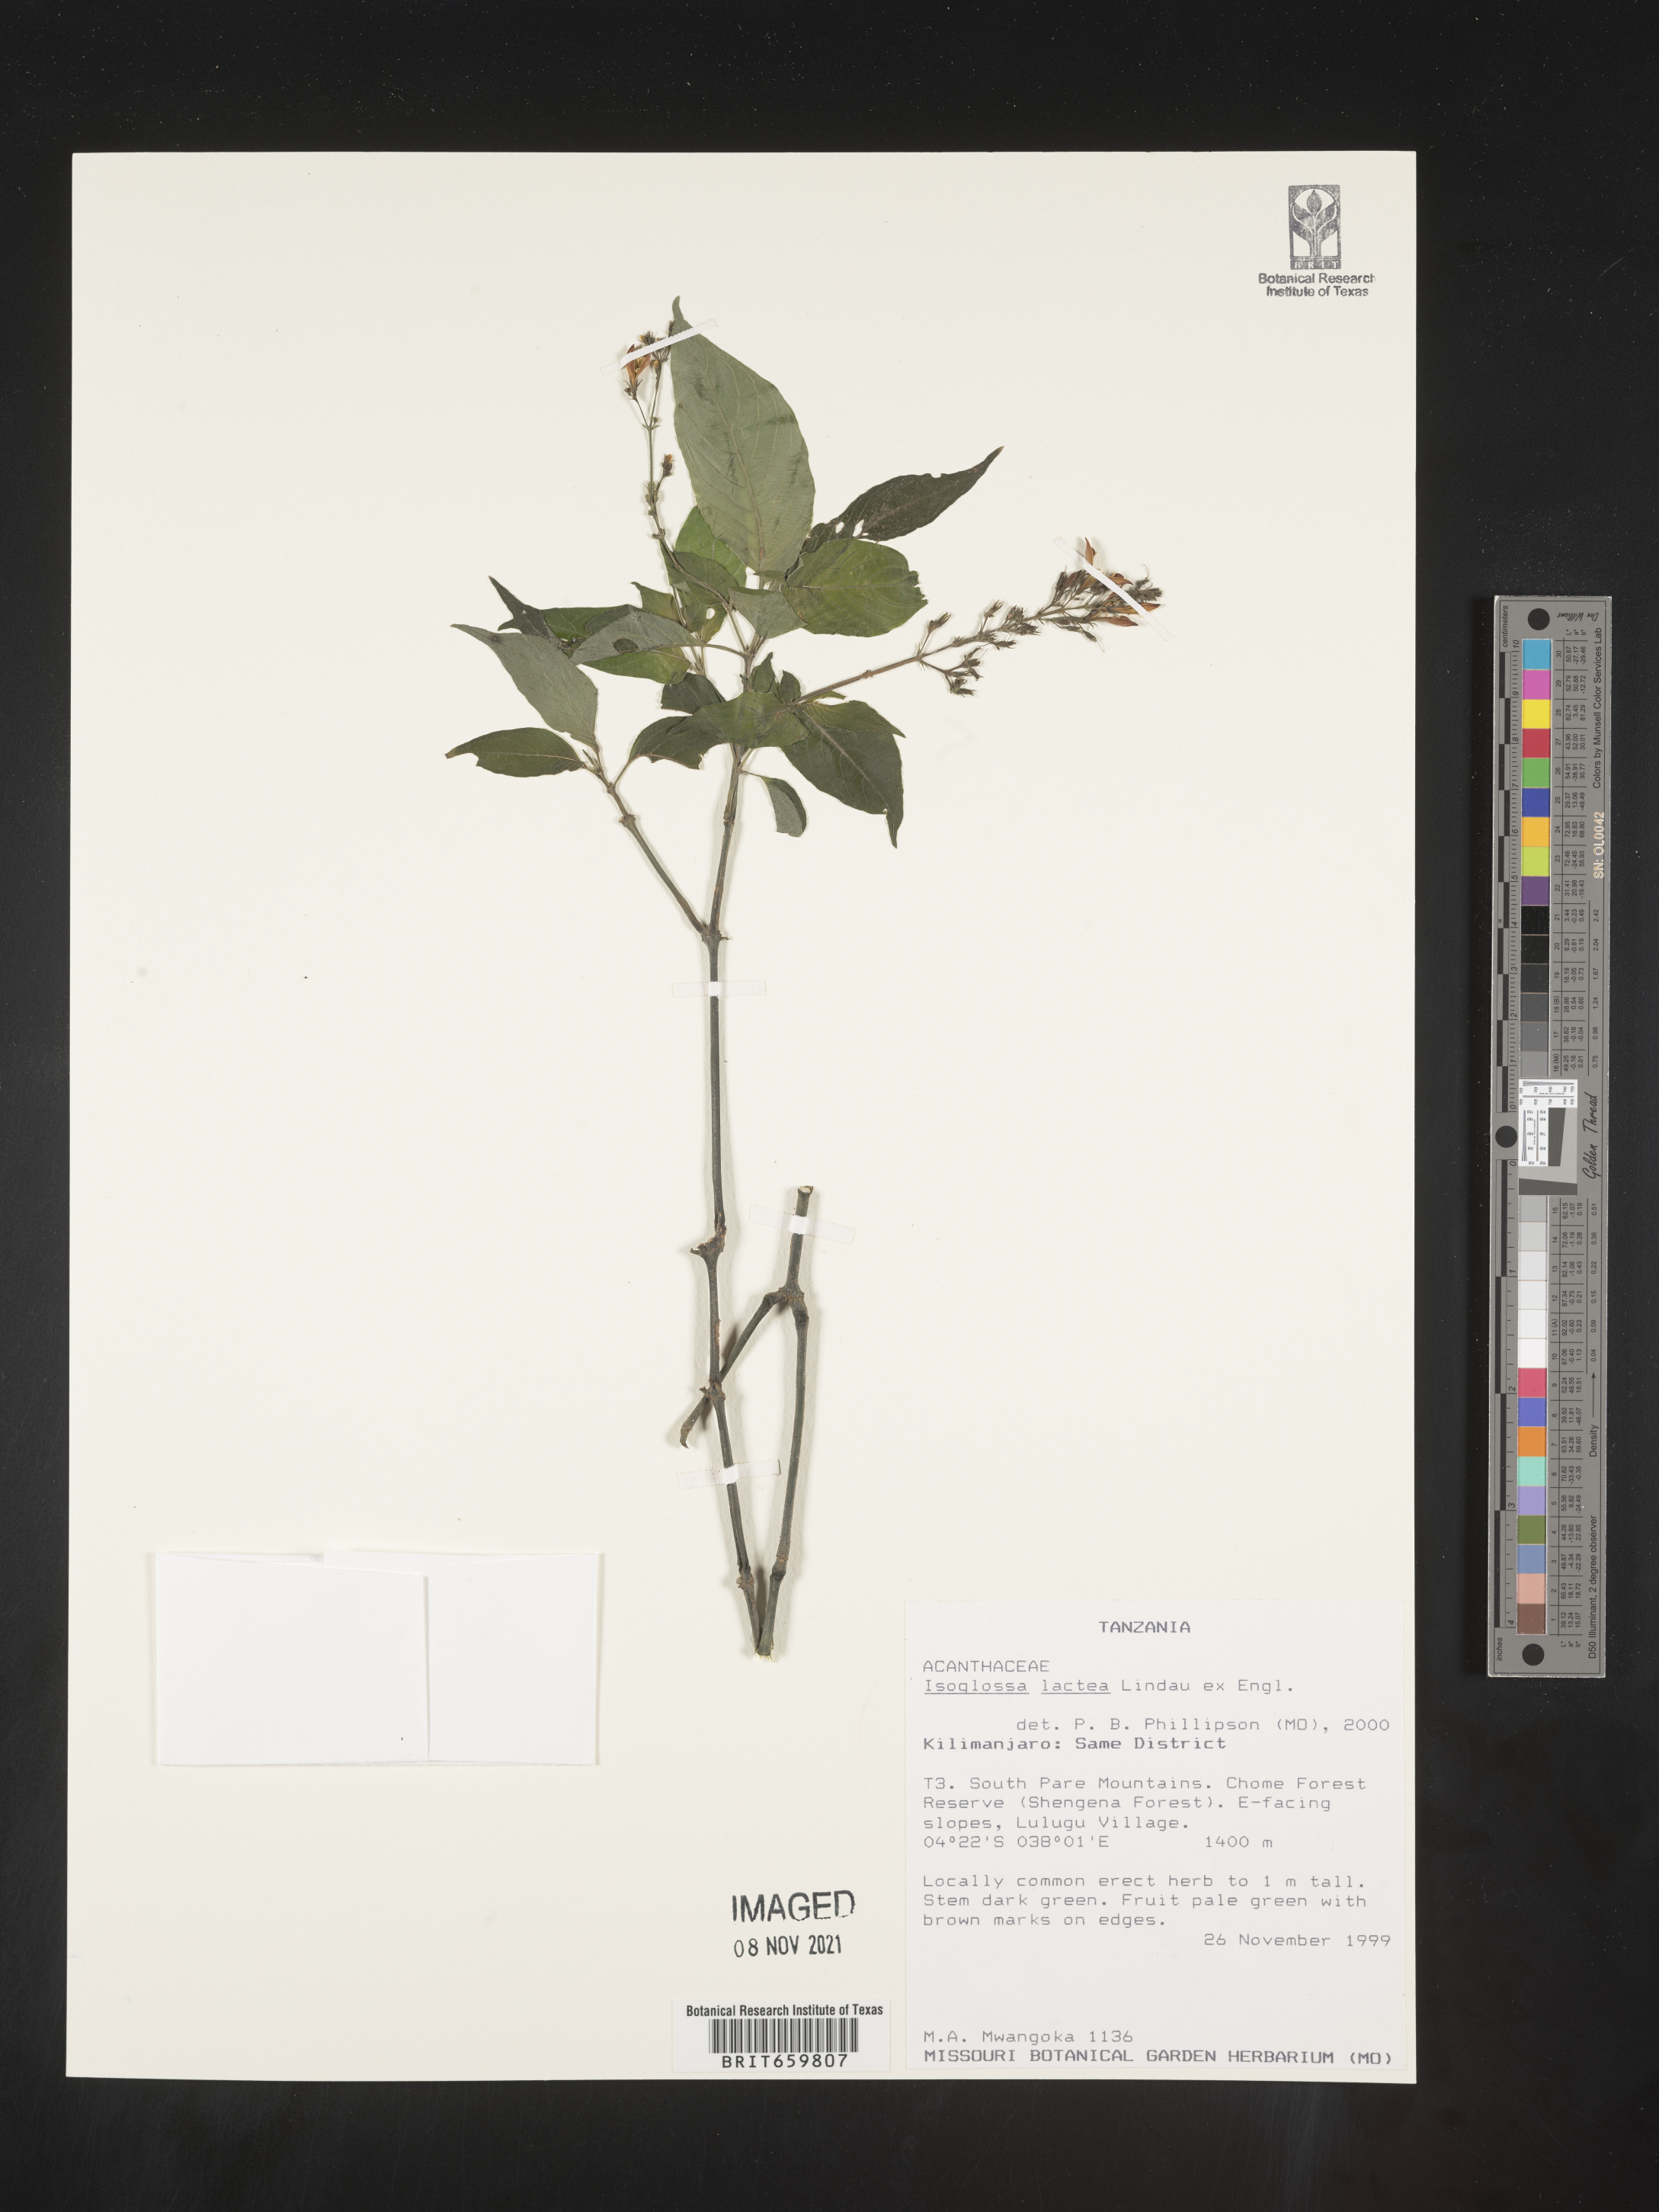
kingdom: Plantae
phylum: Tracheophyta
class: Magnoliopsida
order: Lamiales
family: Acanthaceae
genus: Isoglossa
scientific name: Isoglossa lactea
